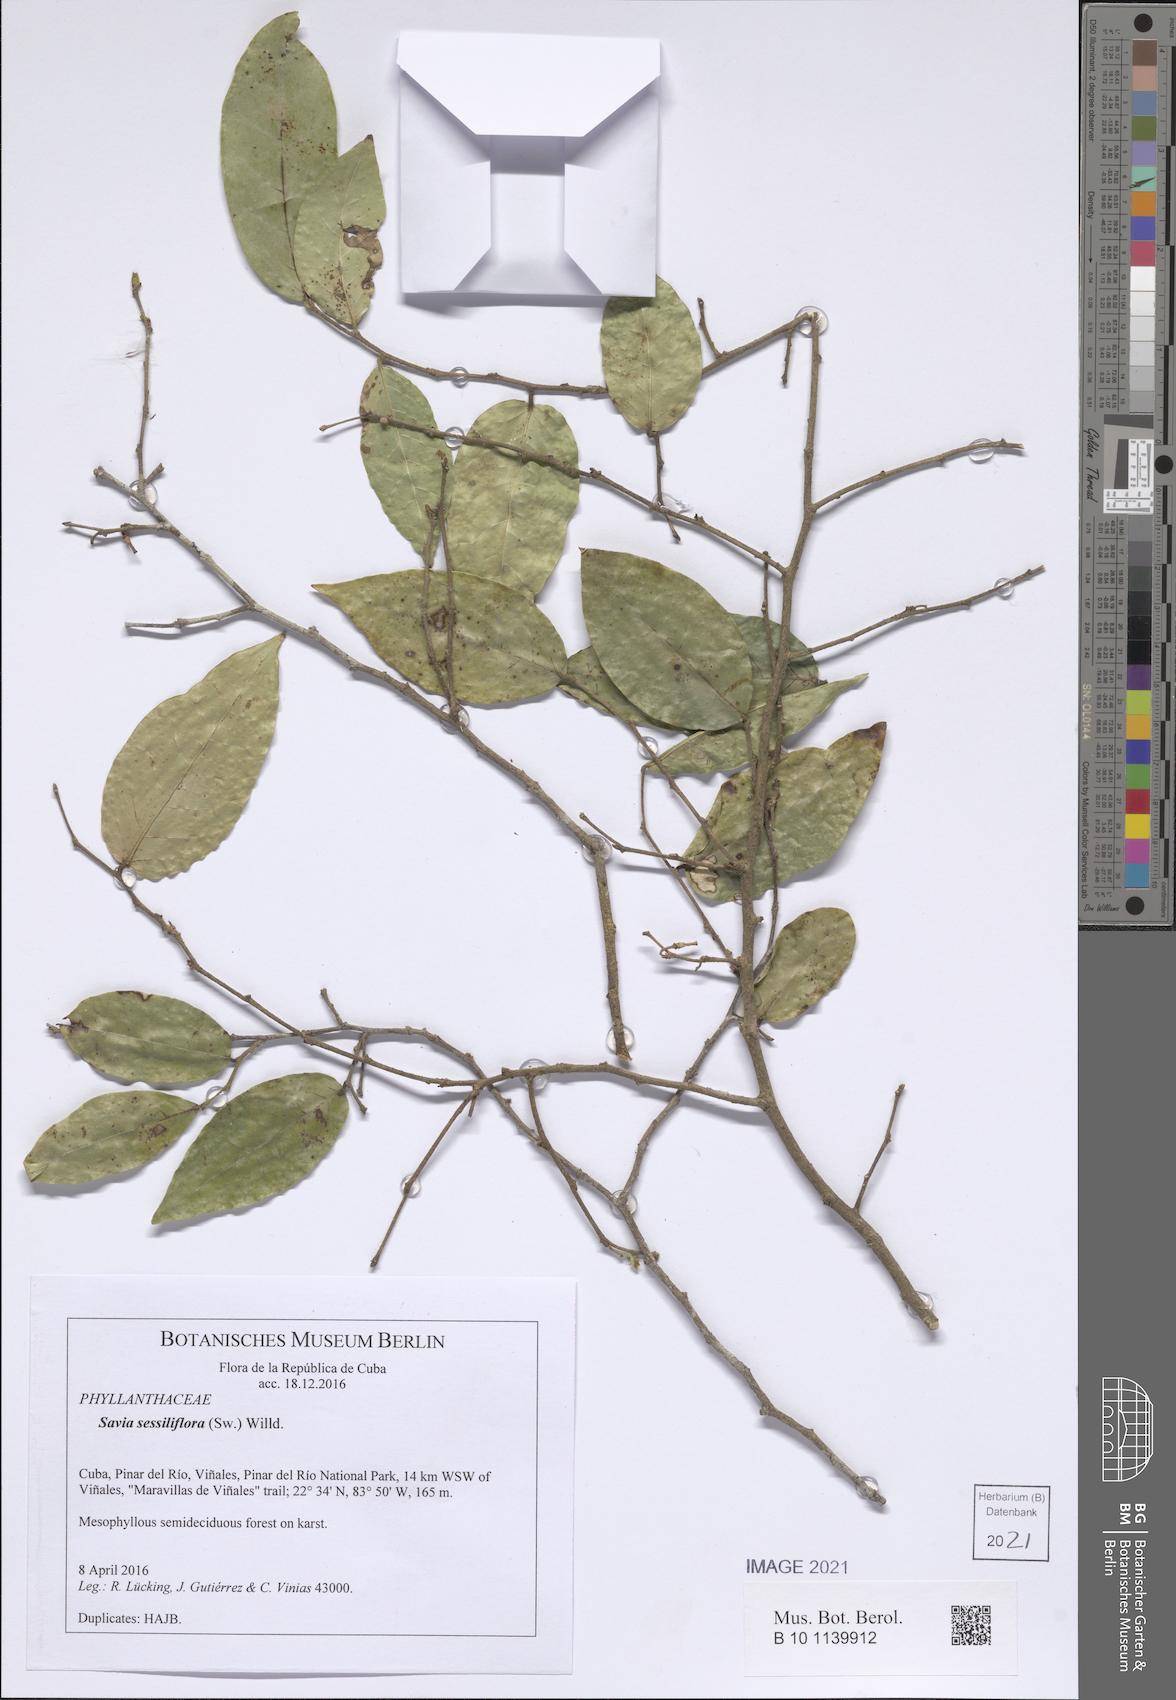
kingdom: Plantae
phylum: Tracheophyta
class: Magnoliopsida
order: Malpighiales
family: Phyllanthaceae
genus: Savia
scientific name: Savia sessiliflora
